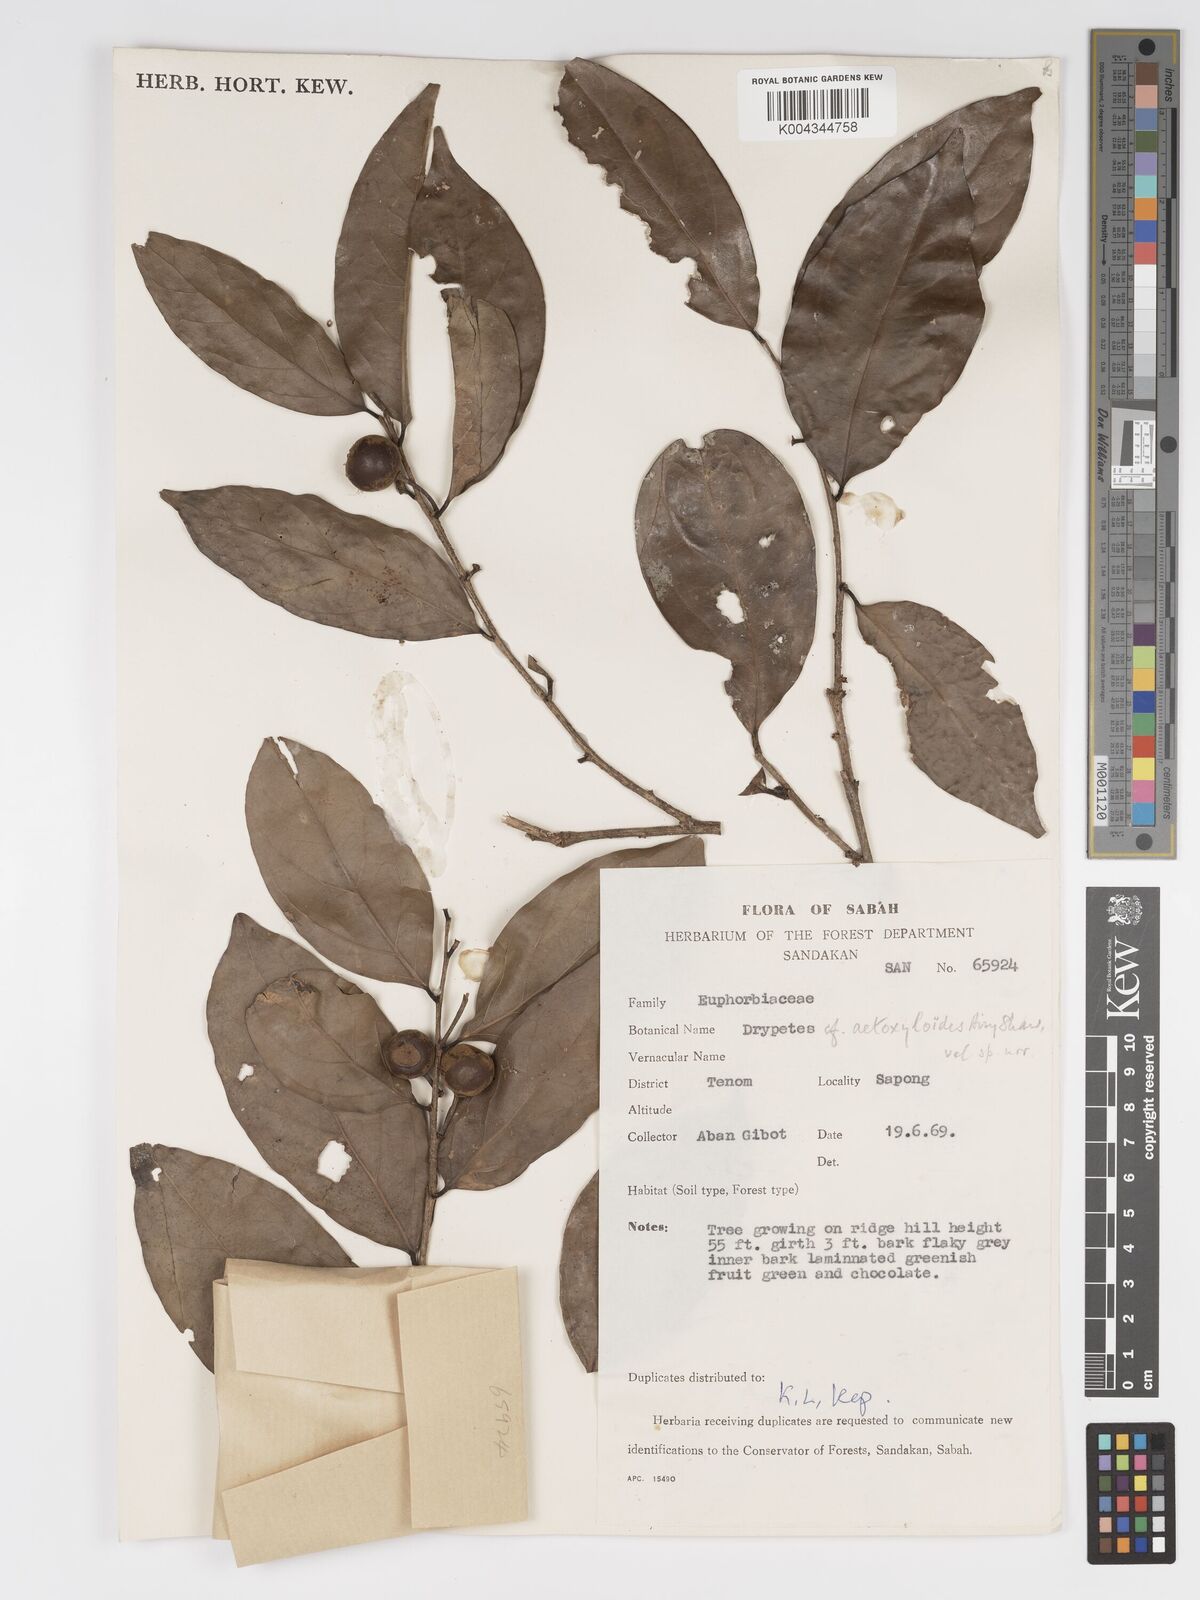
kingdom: Plantae
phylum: Tracheophyta
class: Magnoliopsida
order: Malpighiales
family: Putranjivaceae
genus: Drypetes
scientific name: Drypetes aetoxyloides
